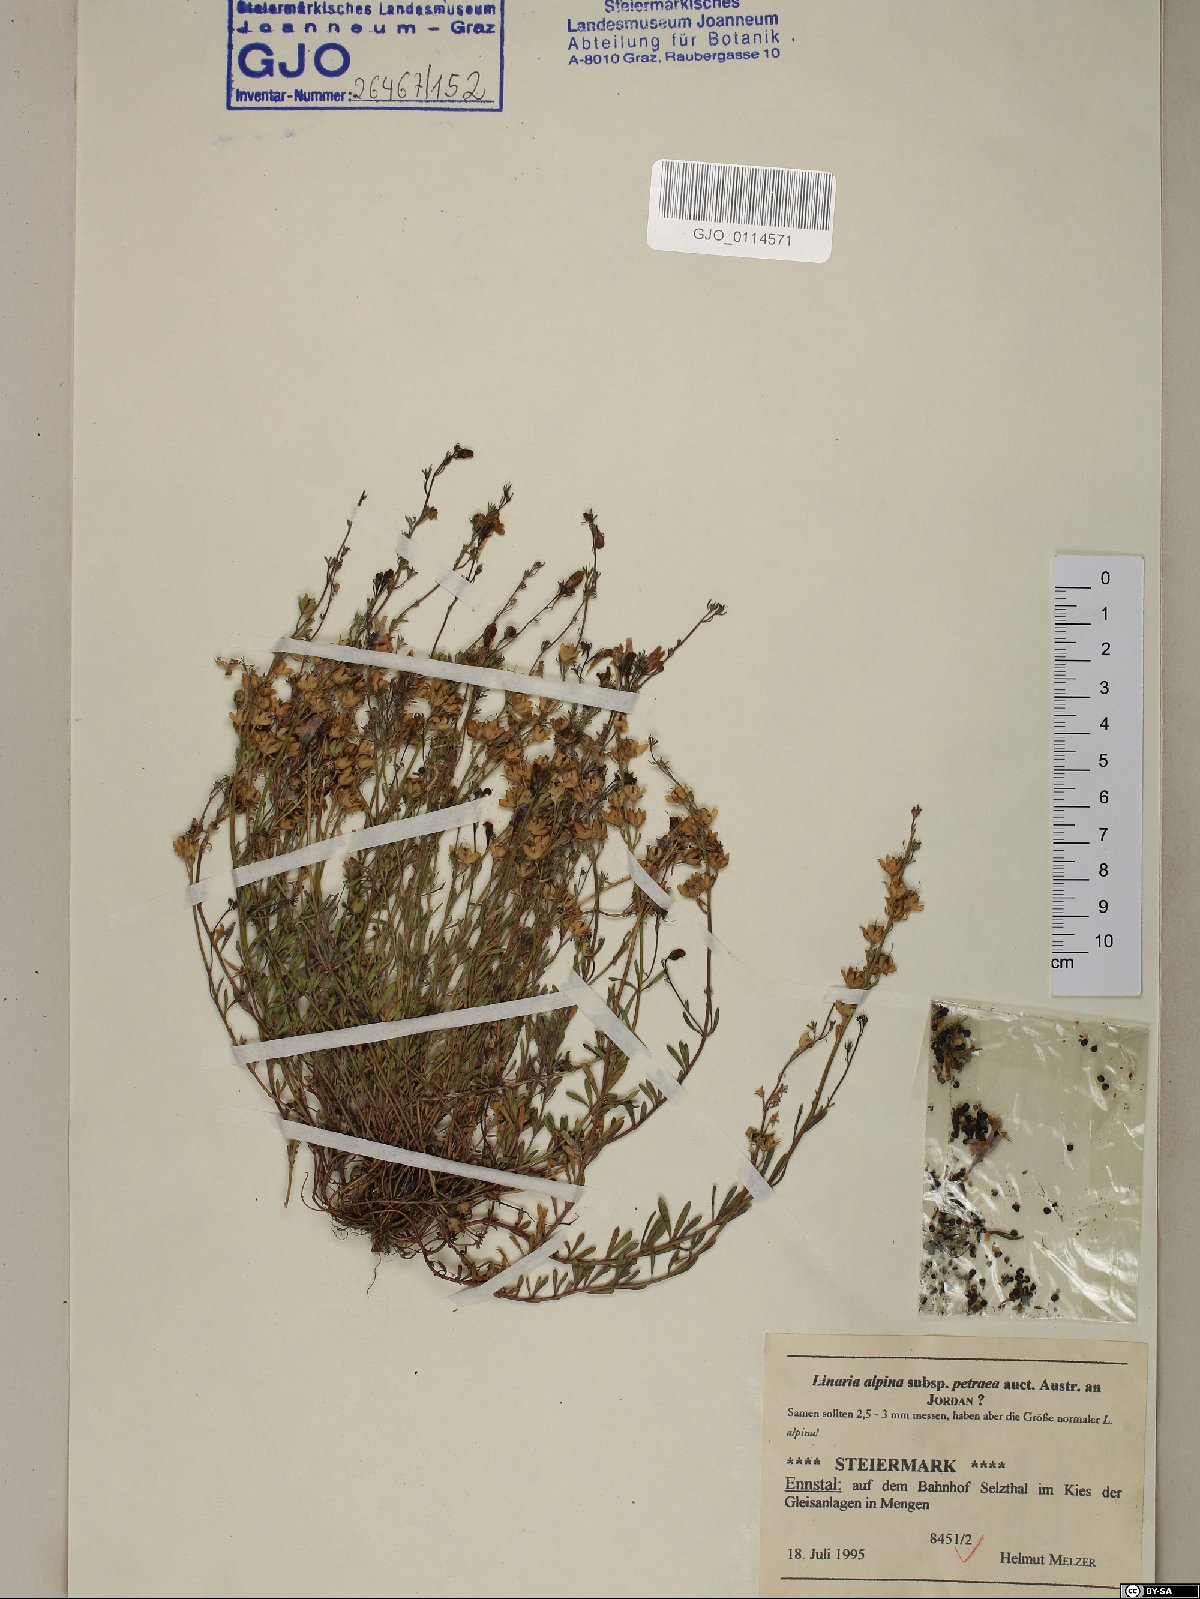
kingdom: Plantae
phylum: Tracheophyta
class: Magnoliopsida
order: Lamiales
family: Plantaginaceae
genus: Linaria
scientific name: Linaria alpina
